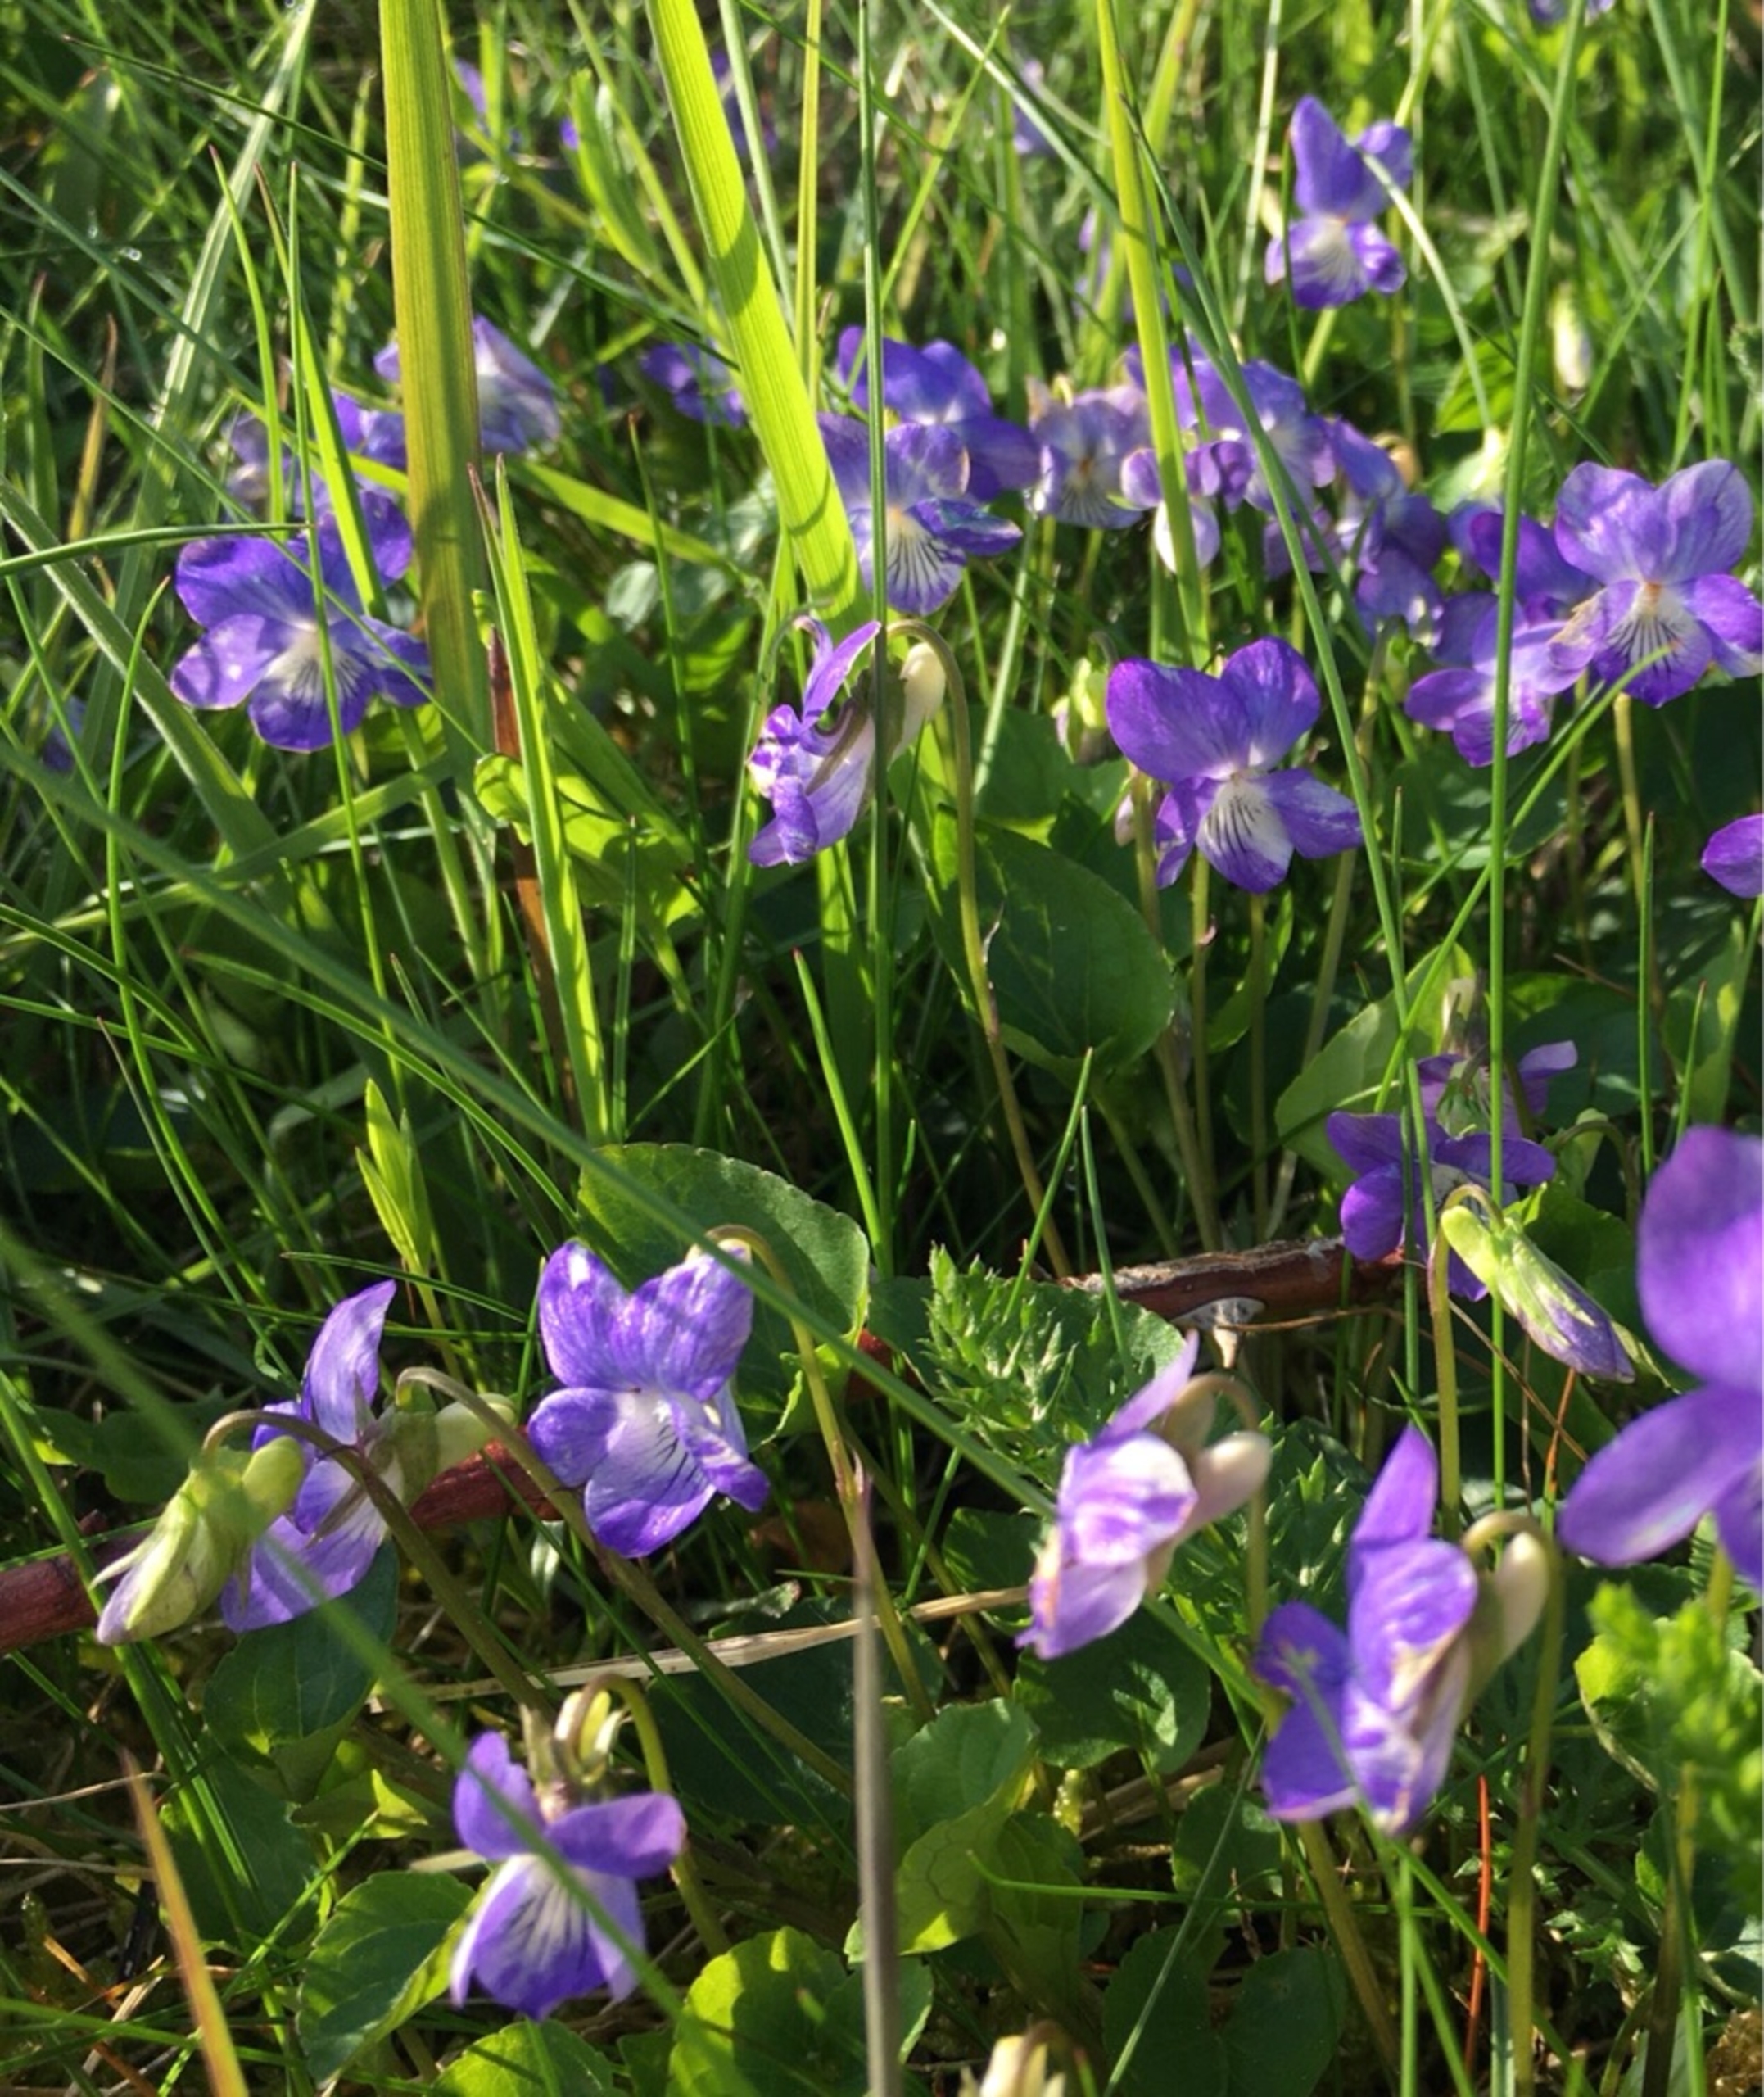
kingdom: Plantae
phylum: Tracheophyta
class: Magnoliopsida
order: Malpighiales
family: Violaceae
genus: Viola
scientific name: Viola canina
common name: Hunde-viol
